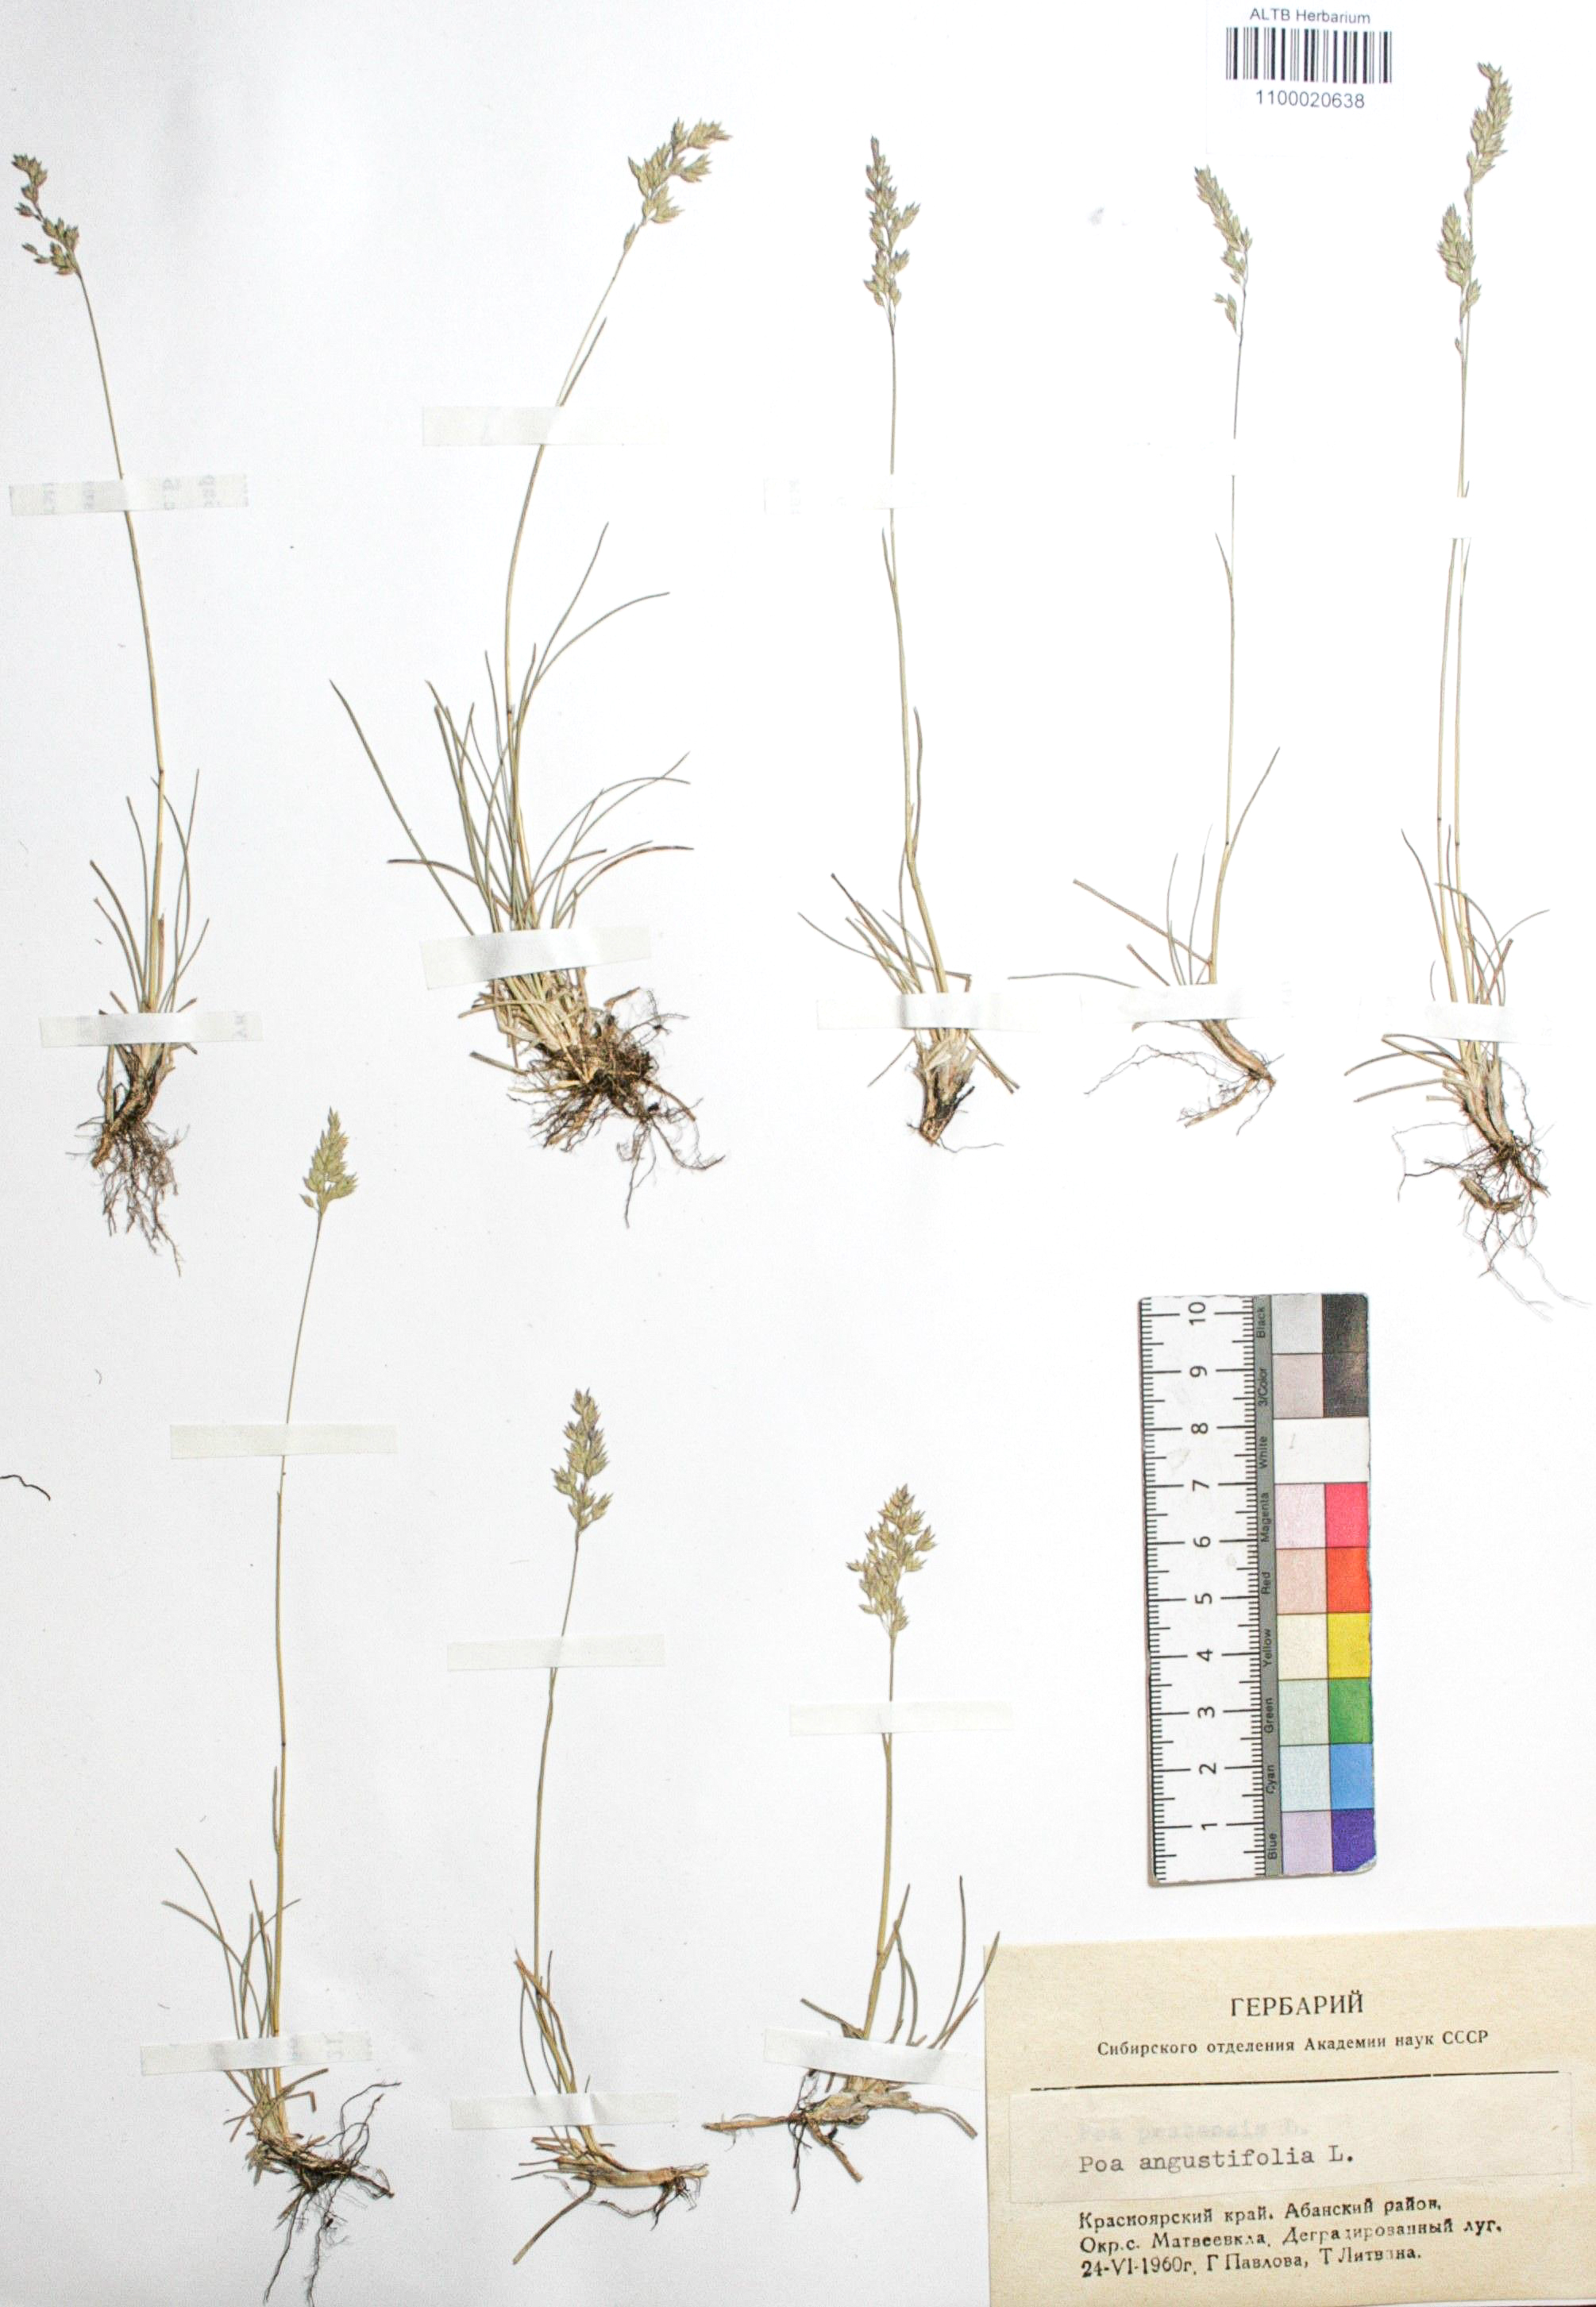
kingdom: Plantae
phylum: Tracheophyta
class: Liliopsida
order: Poales
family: Poaceae
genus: Poa
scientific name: Poa angustifolia
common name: Narrow-leaved meadow-grass
